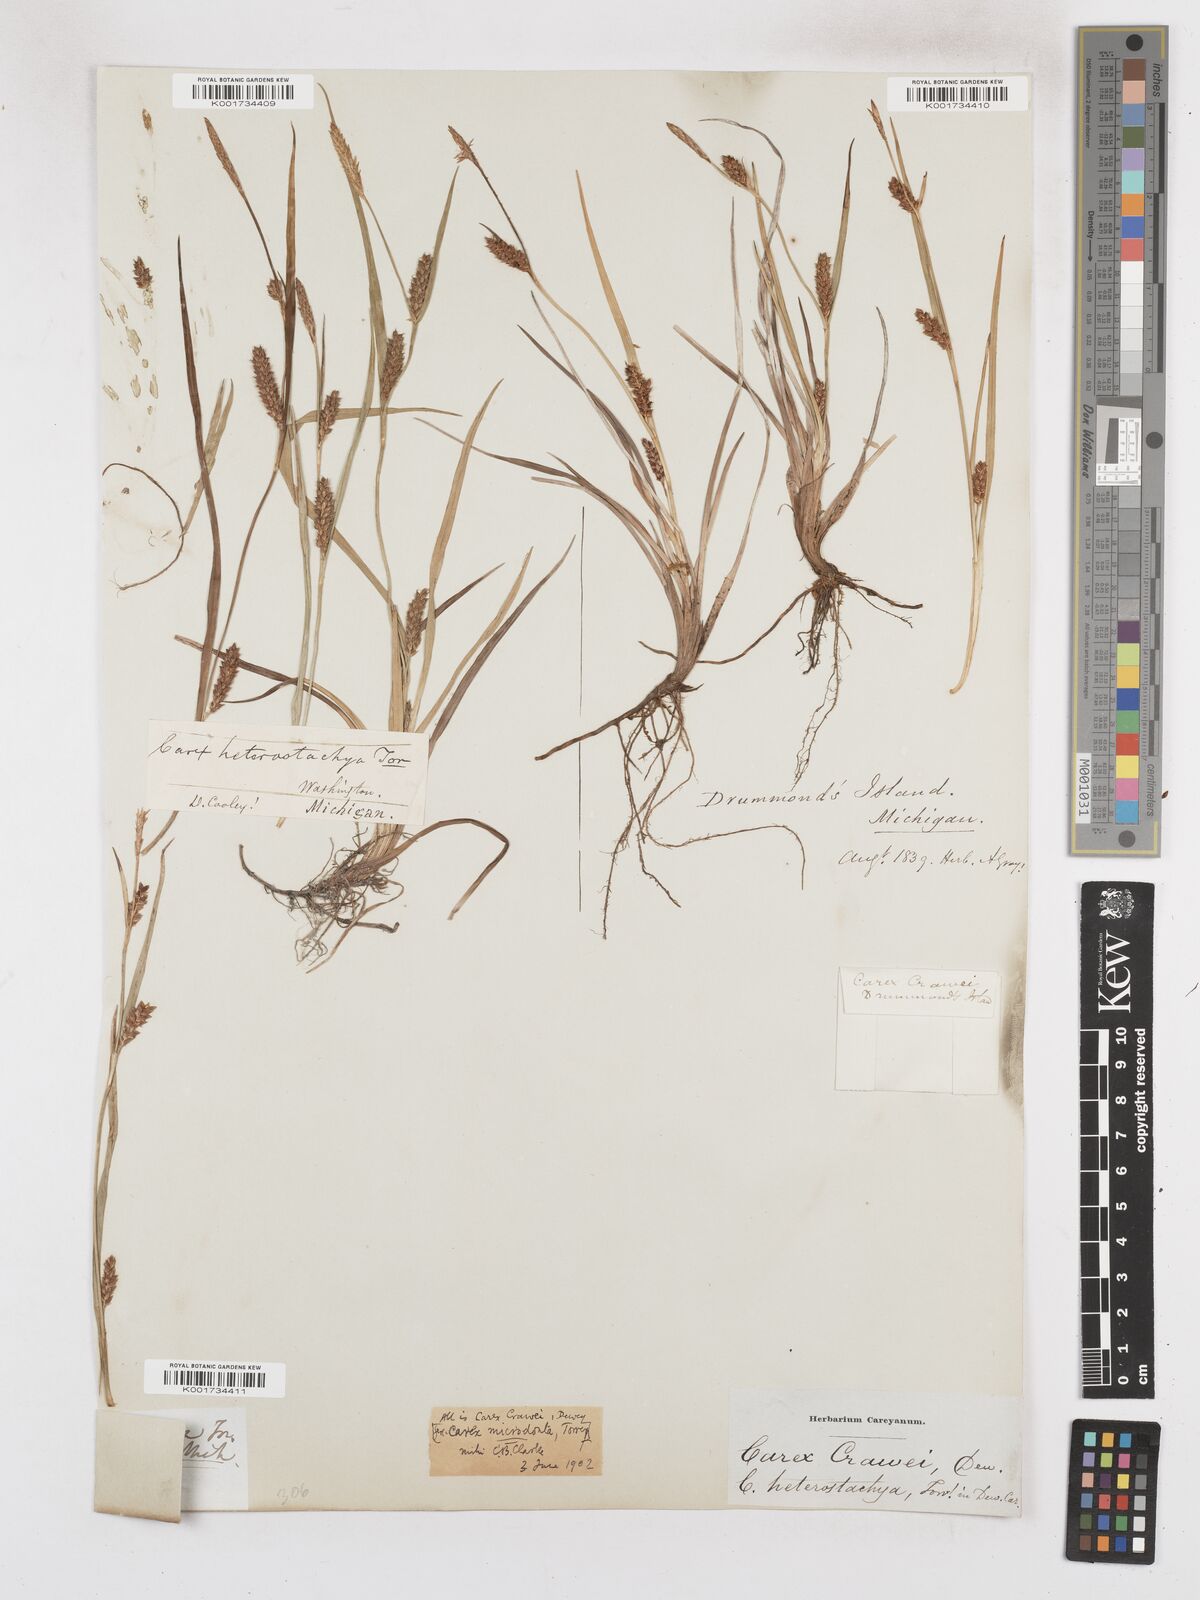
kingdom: Plantae
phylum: Tracheophyta
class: Liliopsida
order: Poales
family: Cyperaceae
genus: Carex
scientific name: Carex crawei
